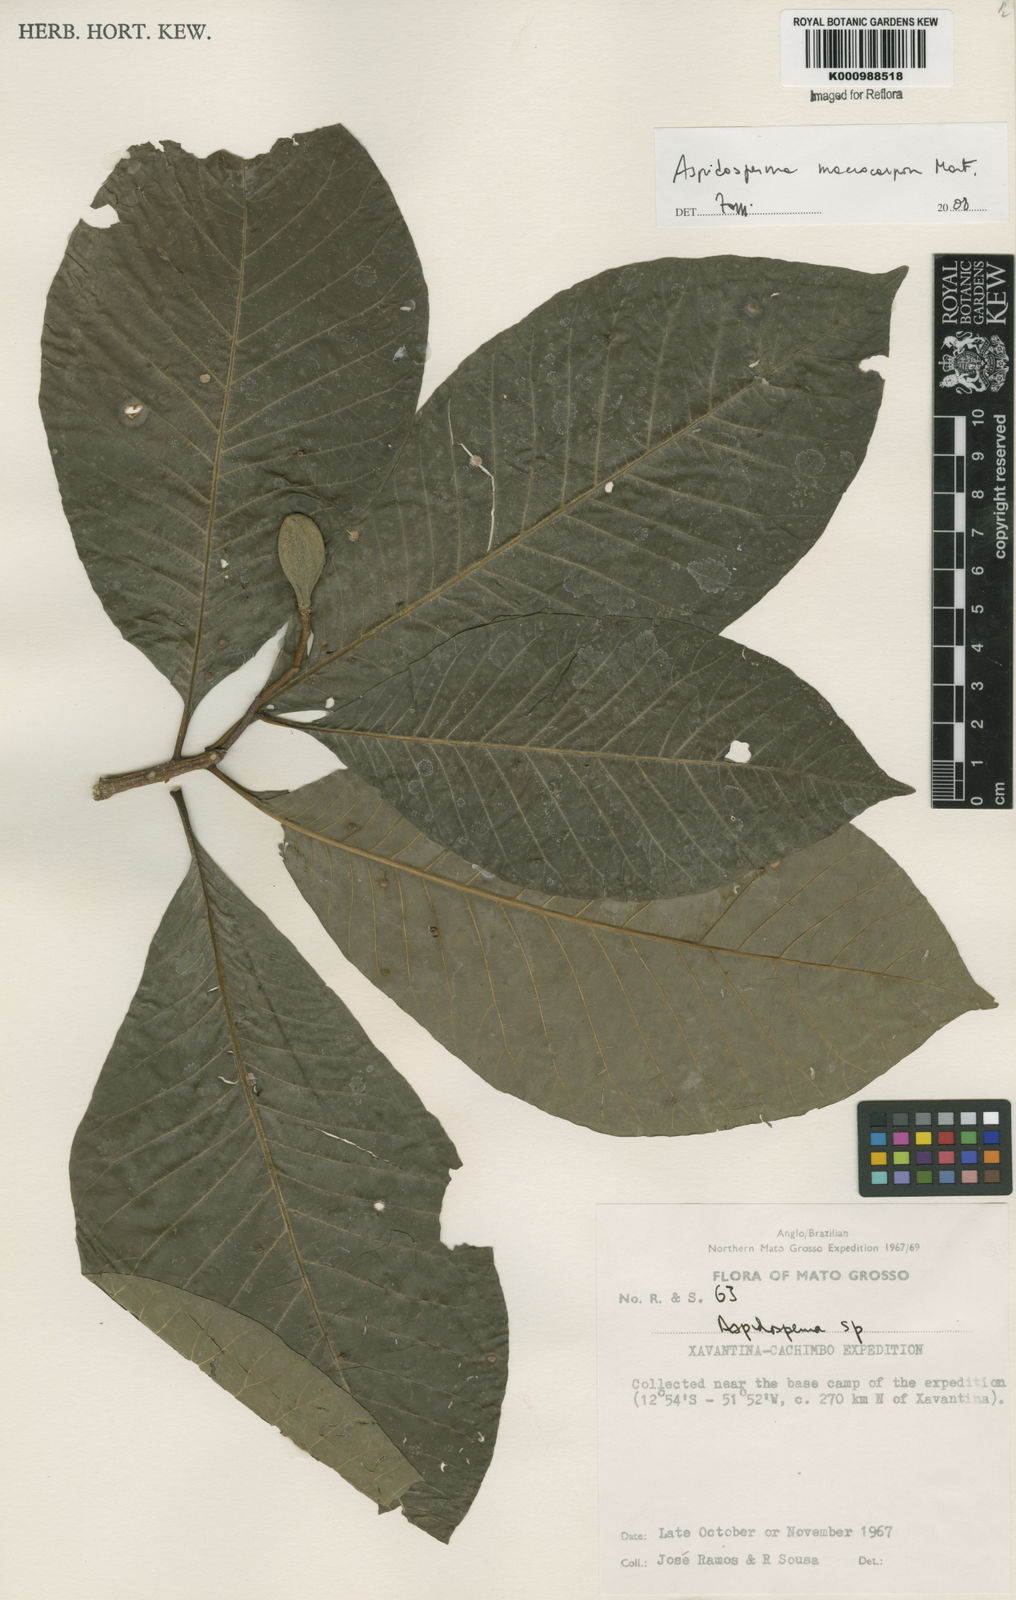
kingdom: Plantae
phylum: Tracheophyta
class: Magnoliopsida
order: Gentianales
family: Apocynaceae
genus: Aspidosperma
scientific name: Aspidosperma macrocarpon
